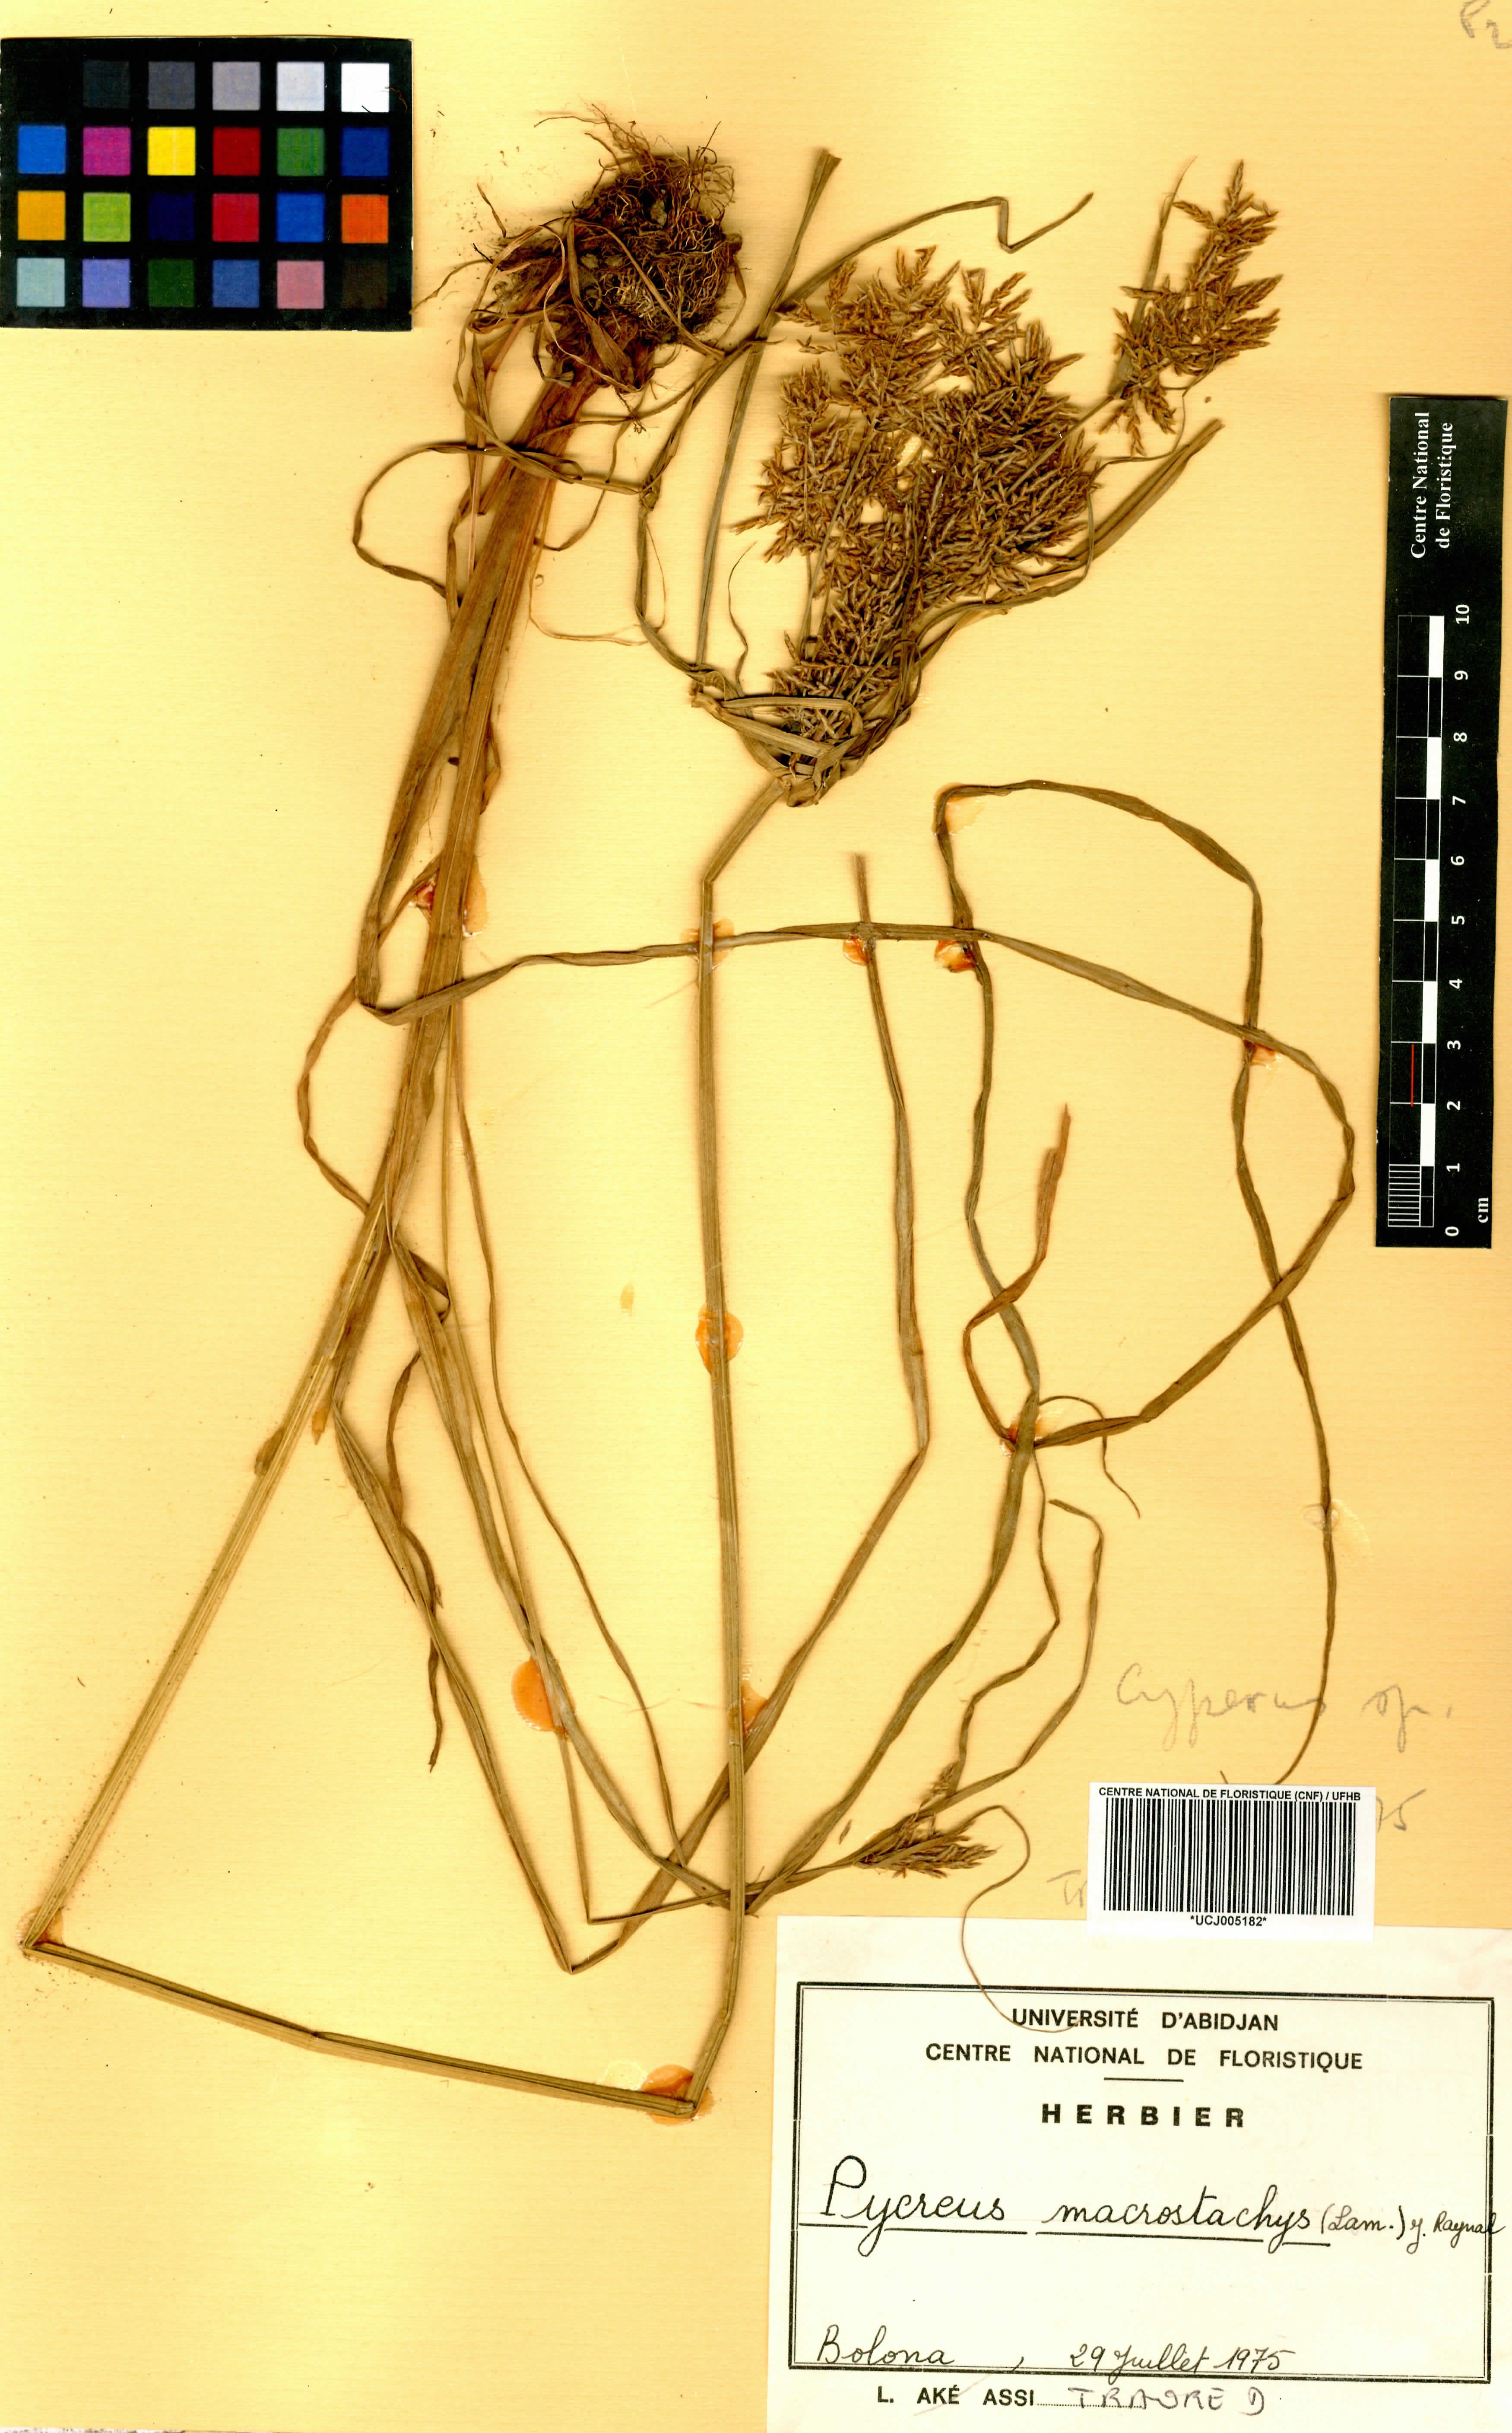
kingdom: Plantae
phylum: Tracheophyta
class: Liliopsida
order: Poales
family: Cyperaceae
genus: Cyperus
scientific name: Cyperus macrostachyos
